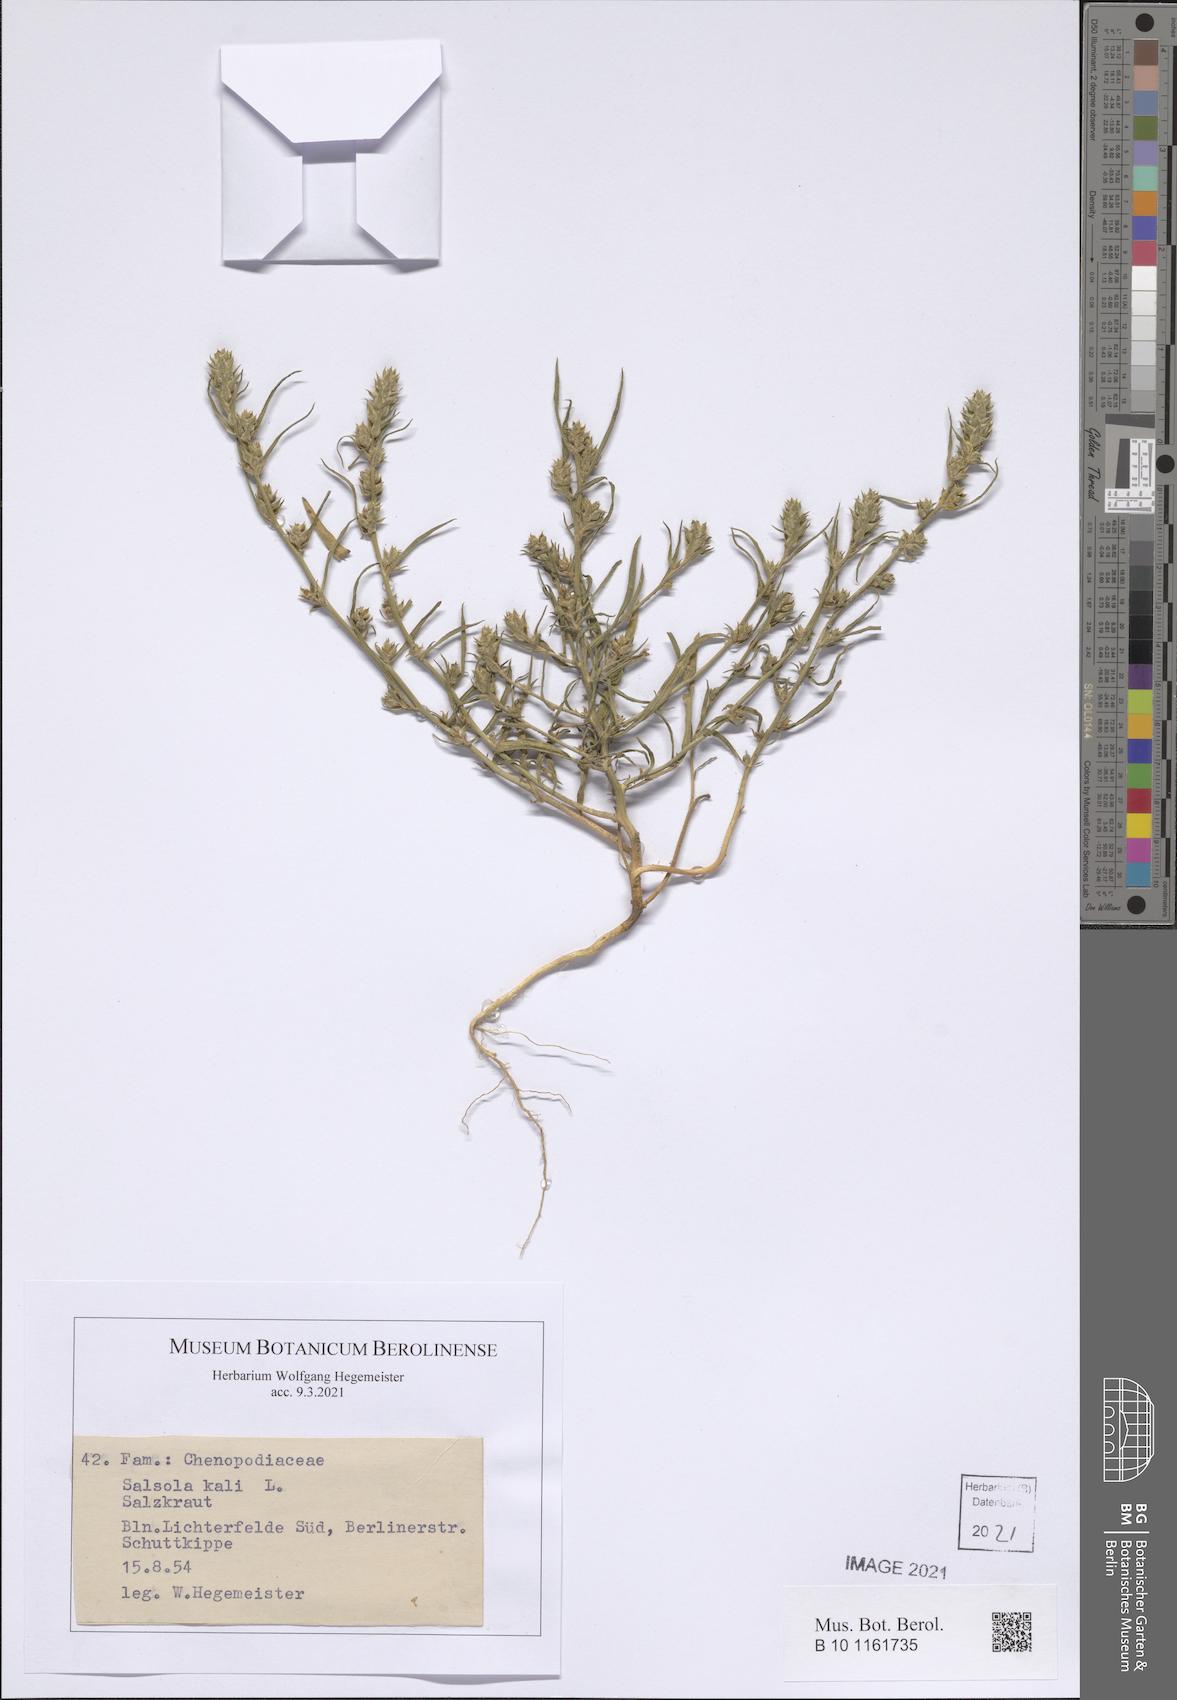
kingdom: Plantae
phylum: Tracheophyta
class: Magnoliopsida
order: Caryophyllales
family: Amaranthaceae
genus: Salsola
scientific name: Salsola kali
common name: Saltwort
